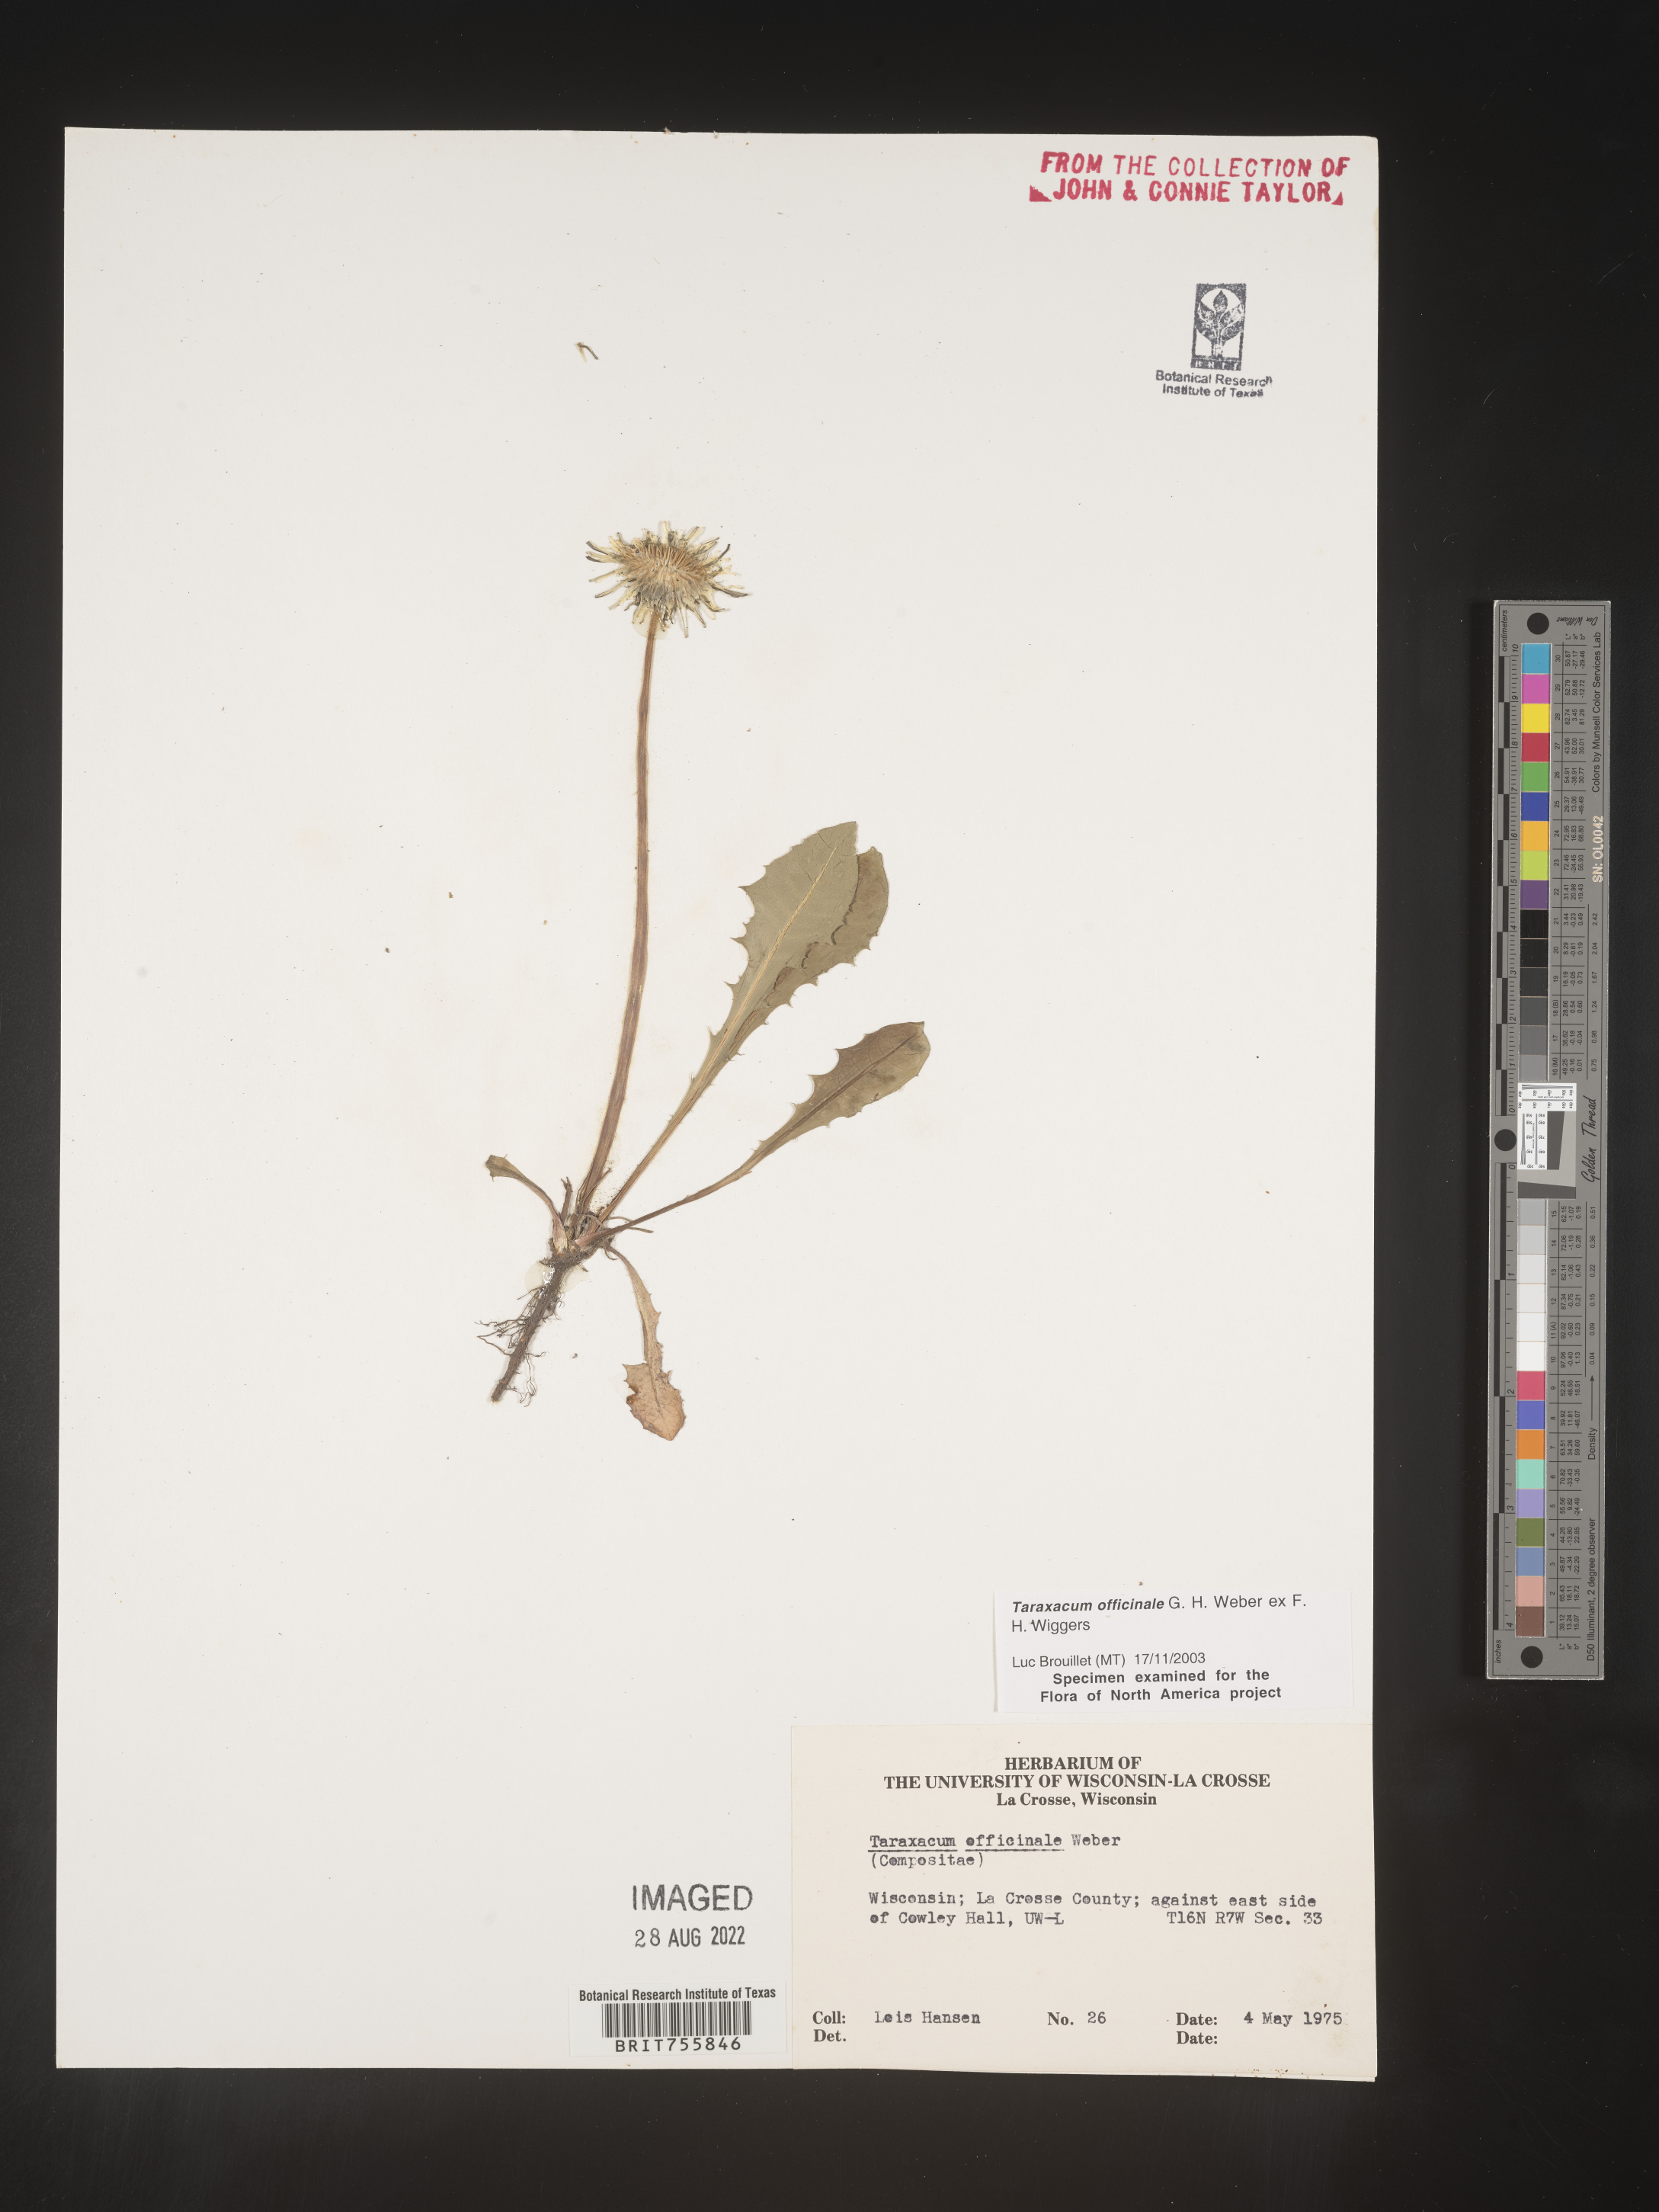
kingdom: Plantae
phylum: Tracheophyta
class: Magnoliopsida
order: Asterales
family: Asteraceae
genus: Taraxacum
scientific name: Taraxacum officinale
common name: Common dandelion
